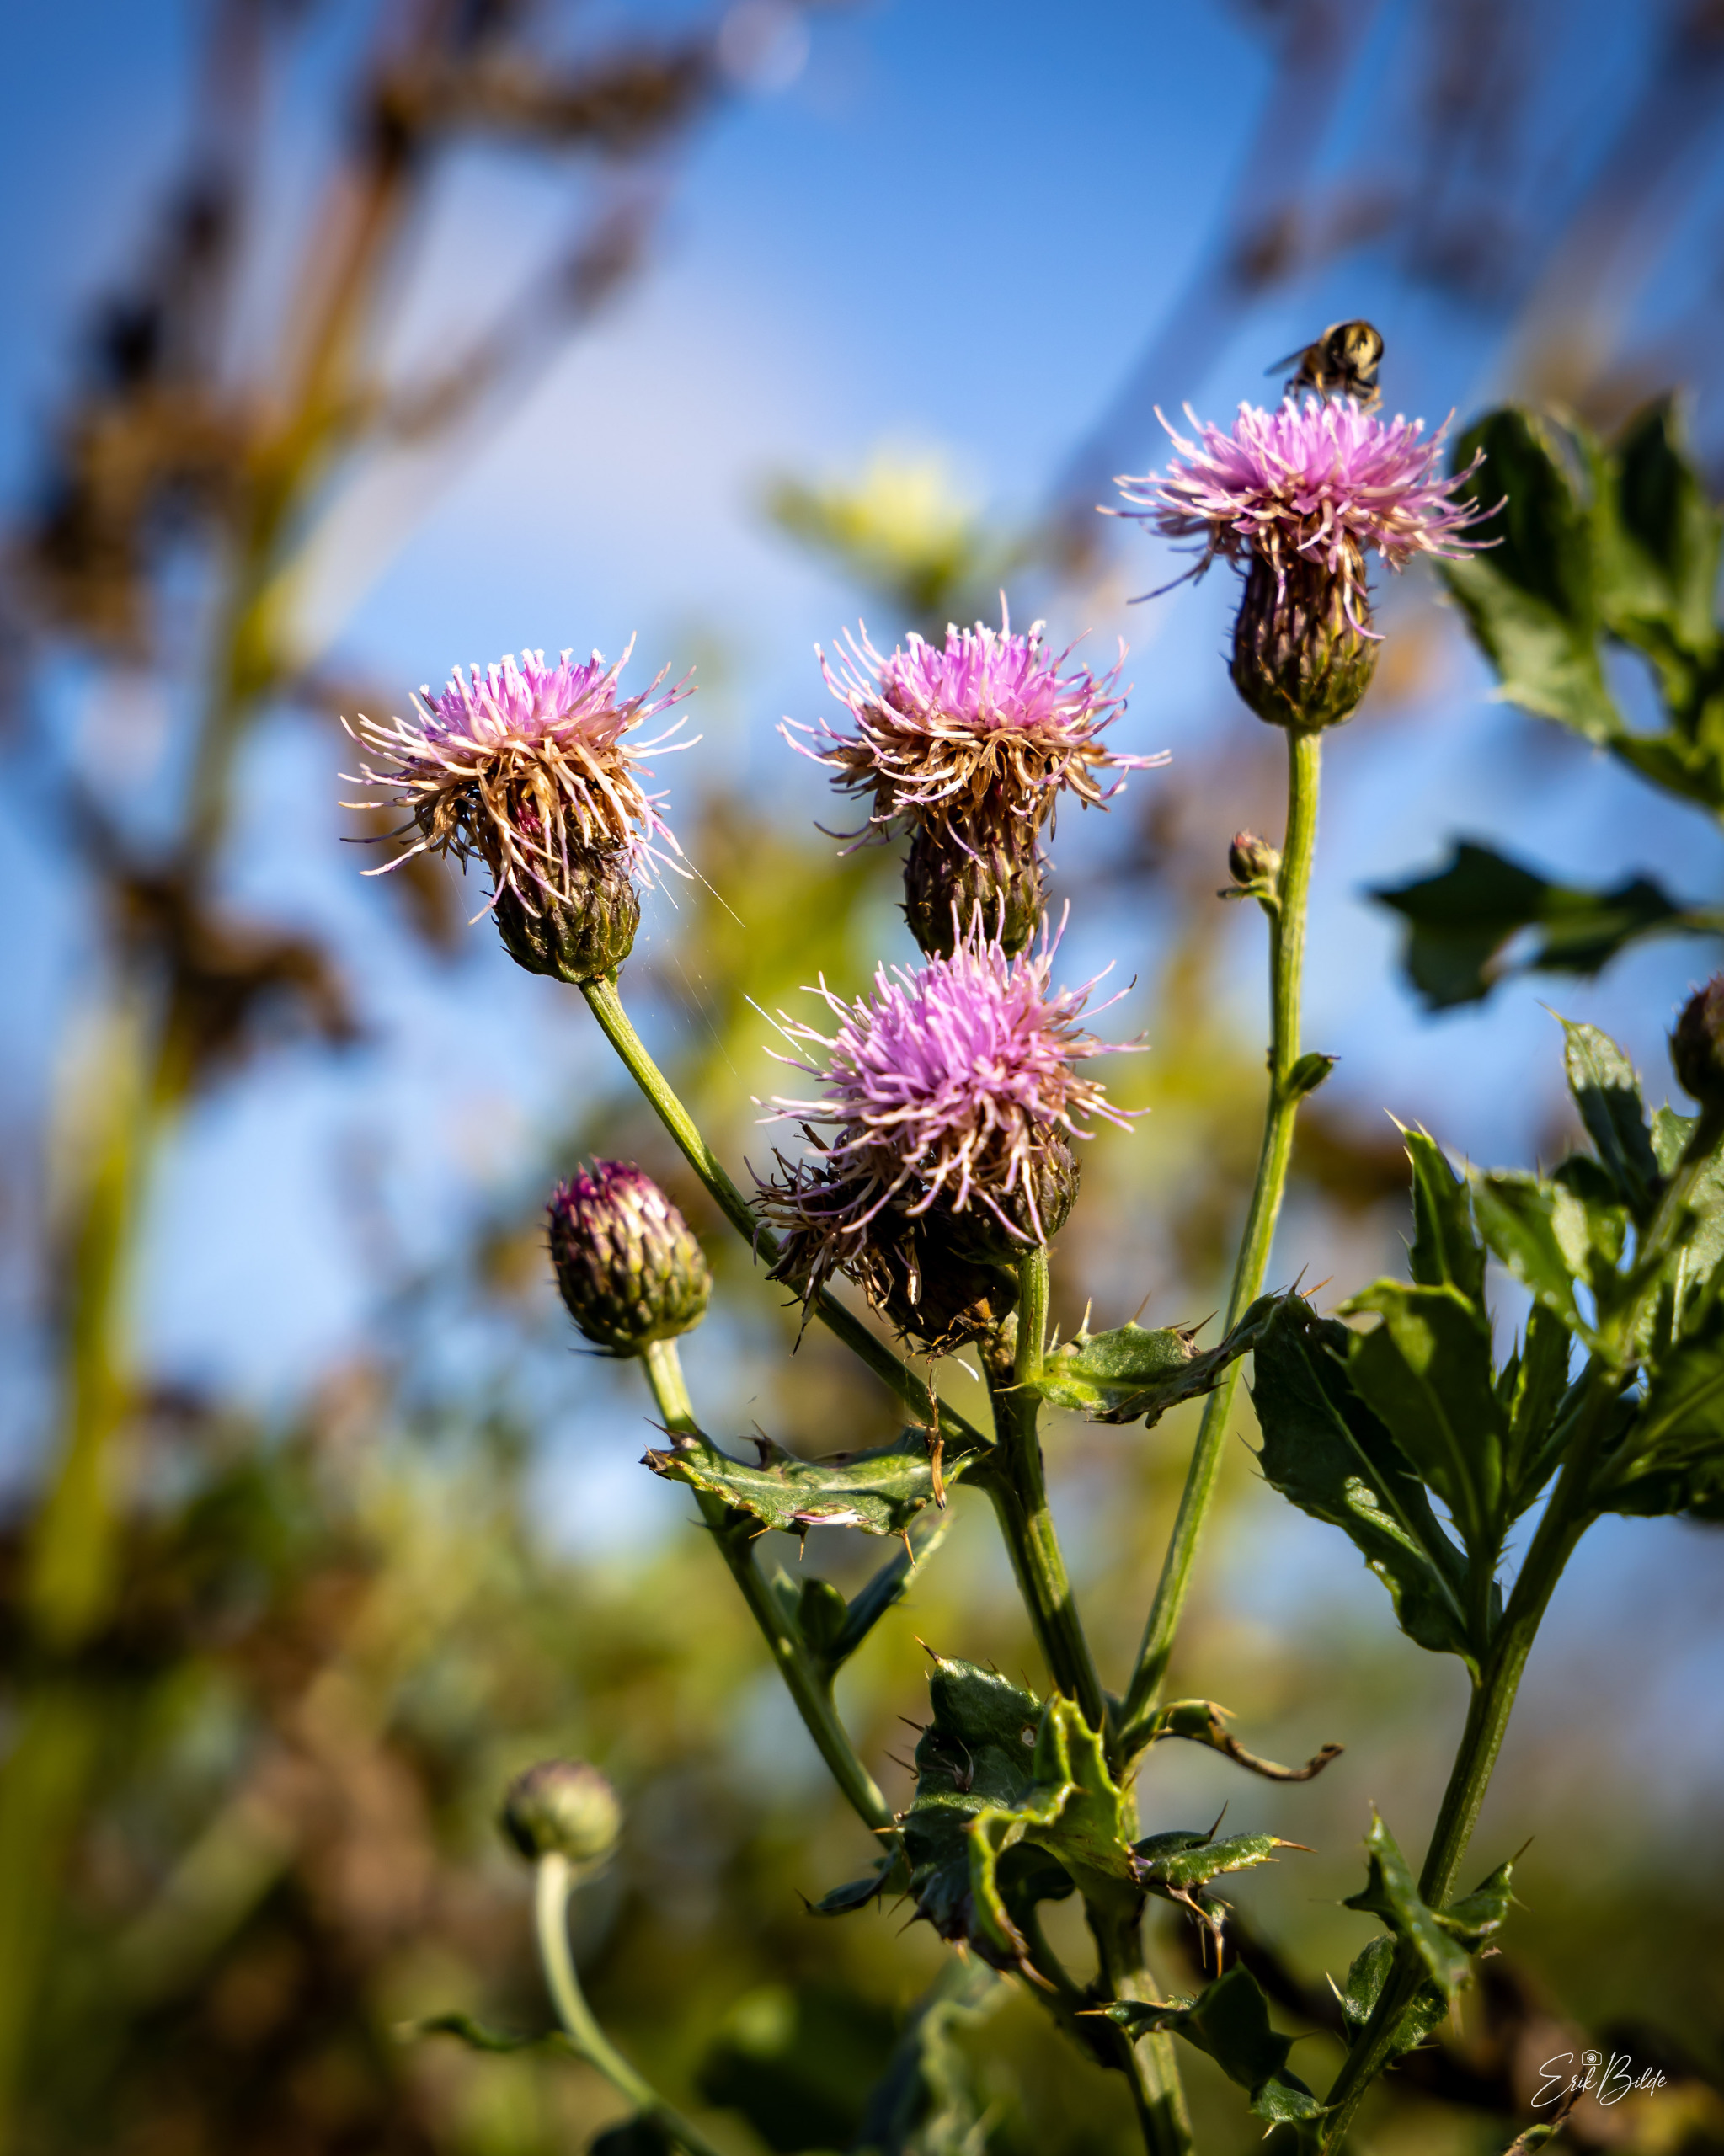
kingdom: Plantae
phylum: Tracheophyta
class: Magnoliopsida
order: Asterales
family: Asteraceae
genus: Cirsium
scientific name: Cirsium arvense
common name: Ager-tidsel
